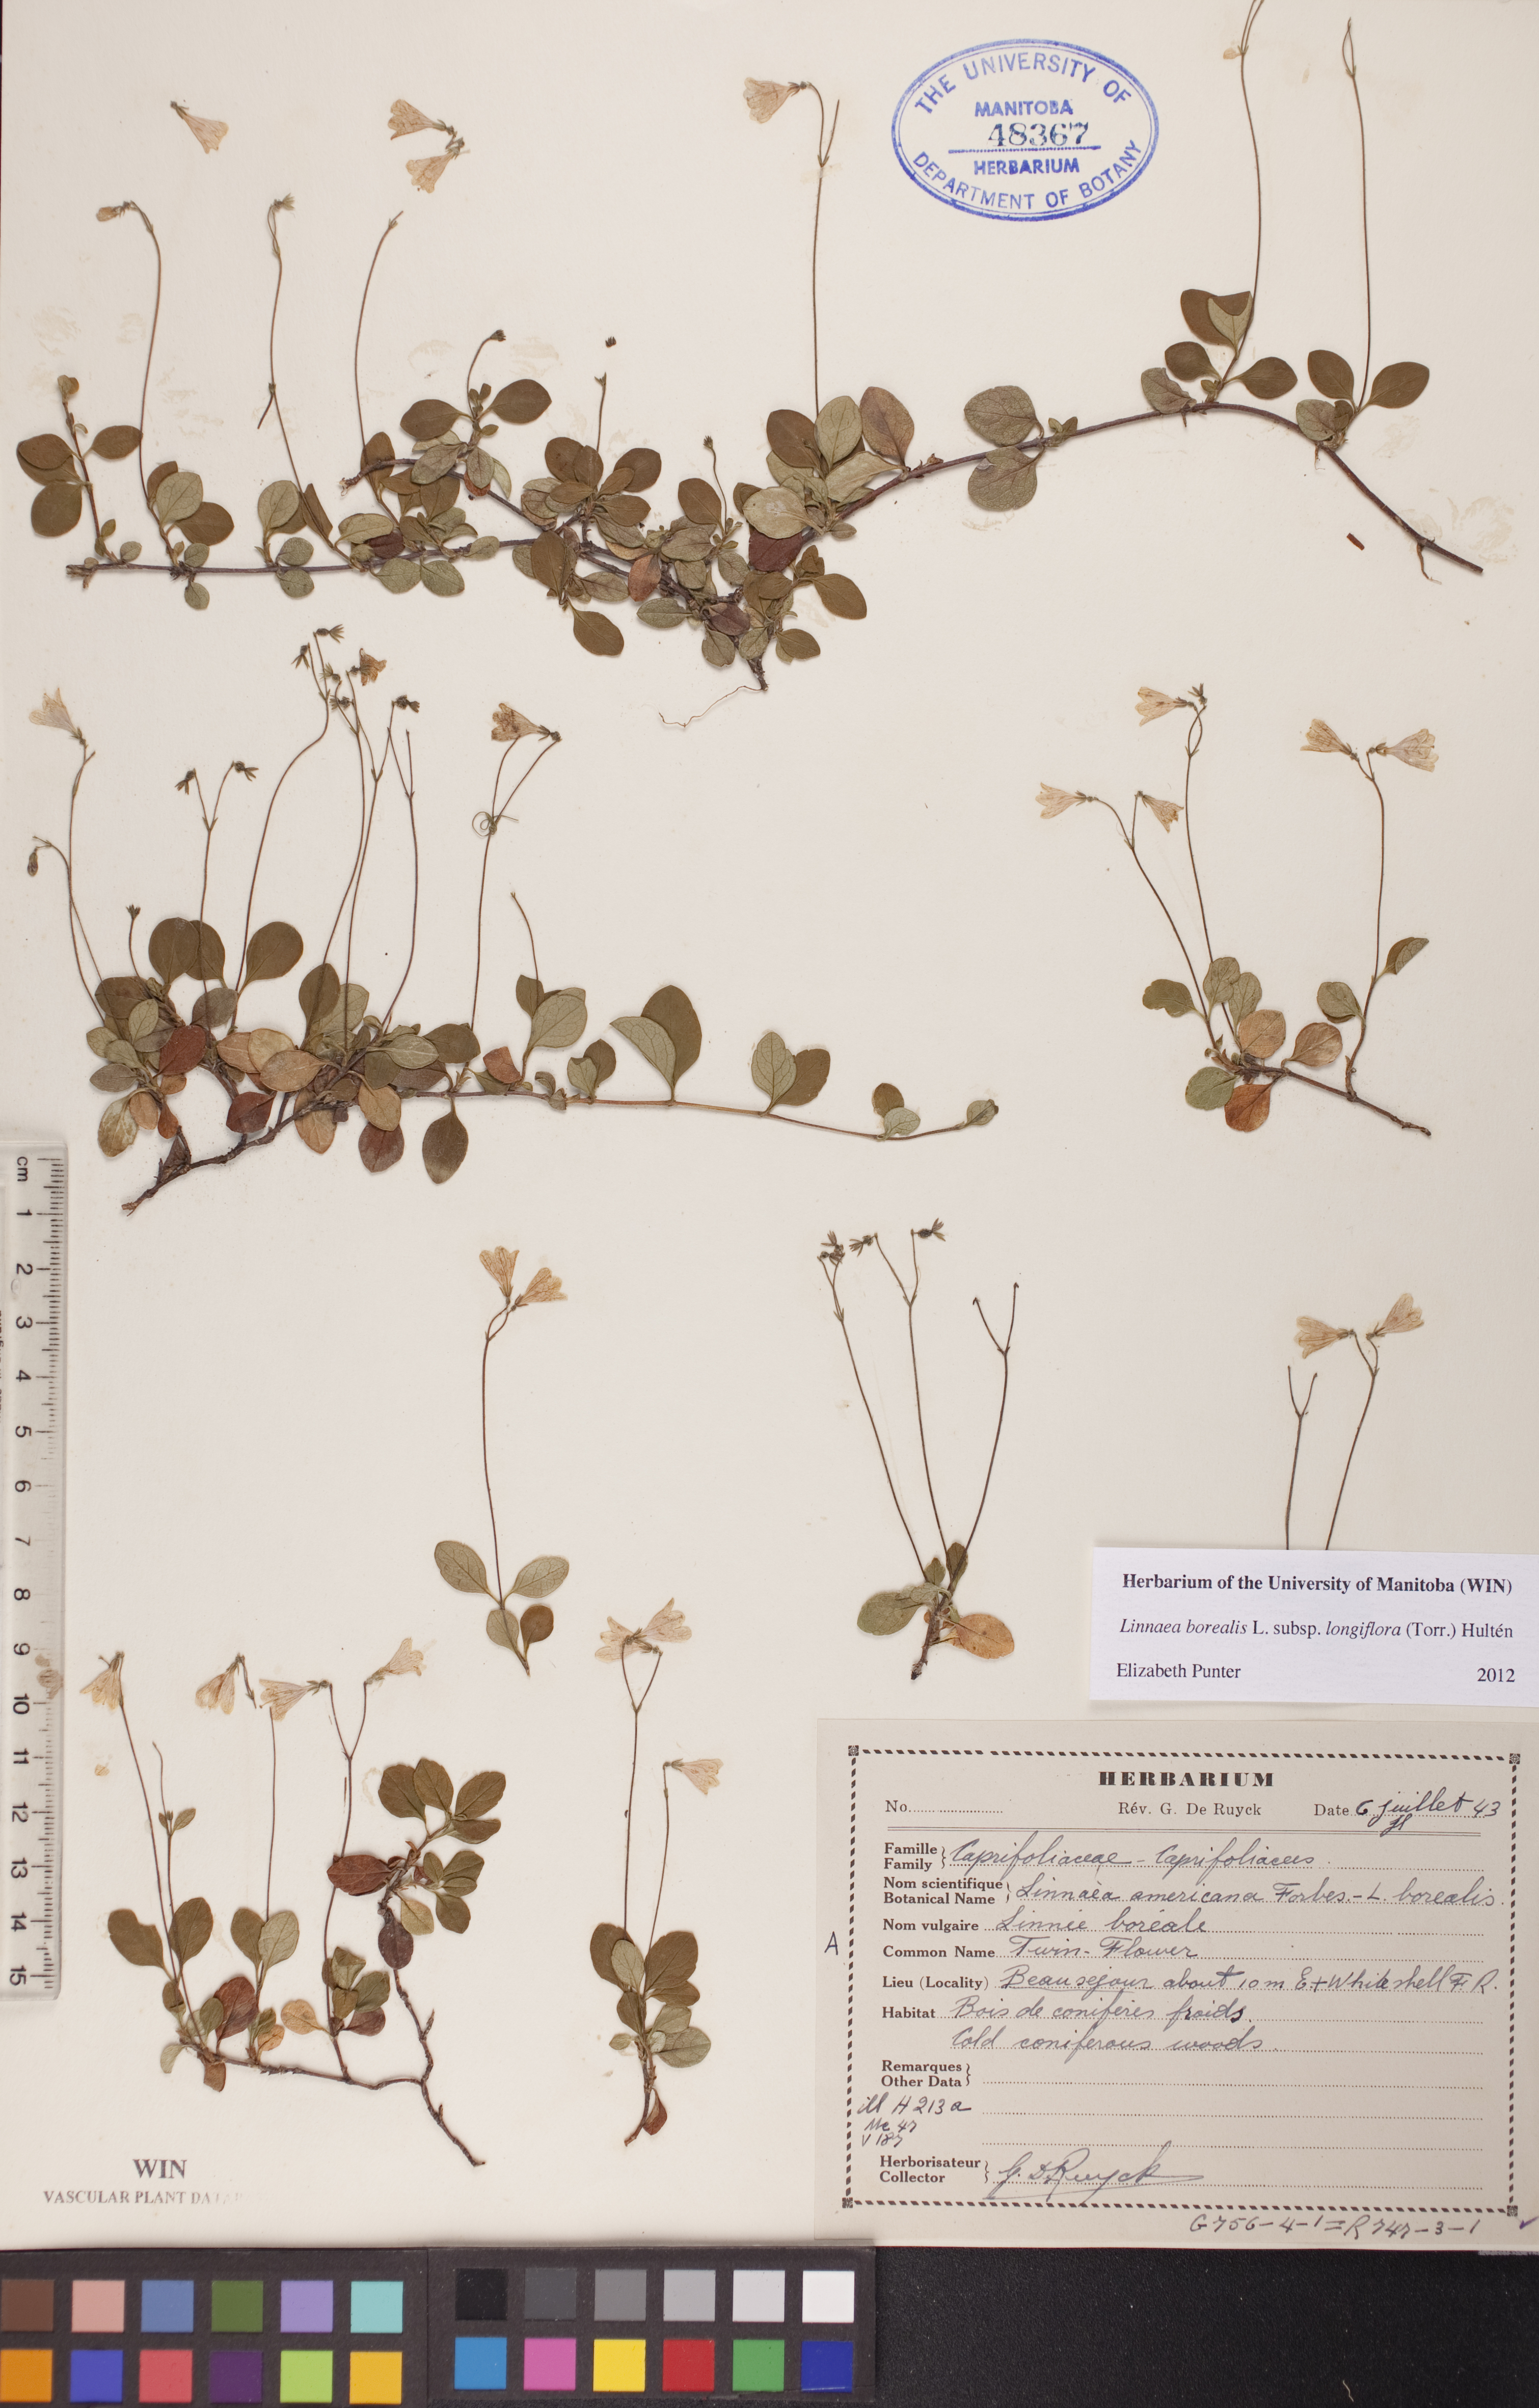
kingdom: Plantae
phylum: Tracheophyta
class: Magnoliopsida
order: Dipsacales
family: Caprifoliaceae
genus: Linnaea
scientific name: Linnaea borealis
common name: Twinflower
